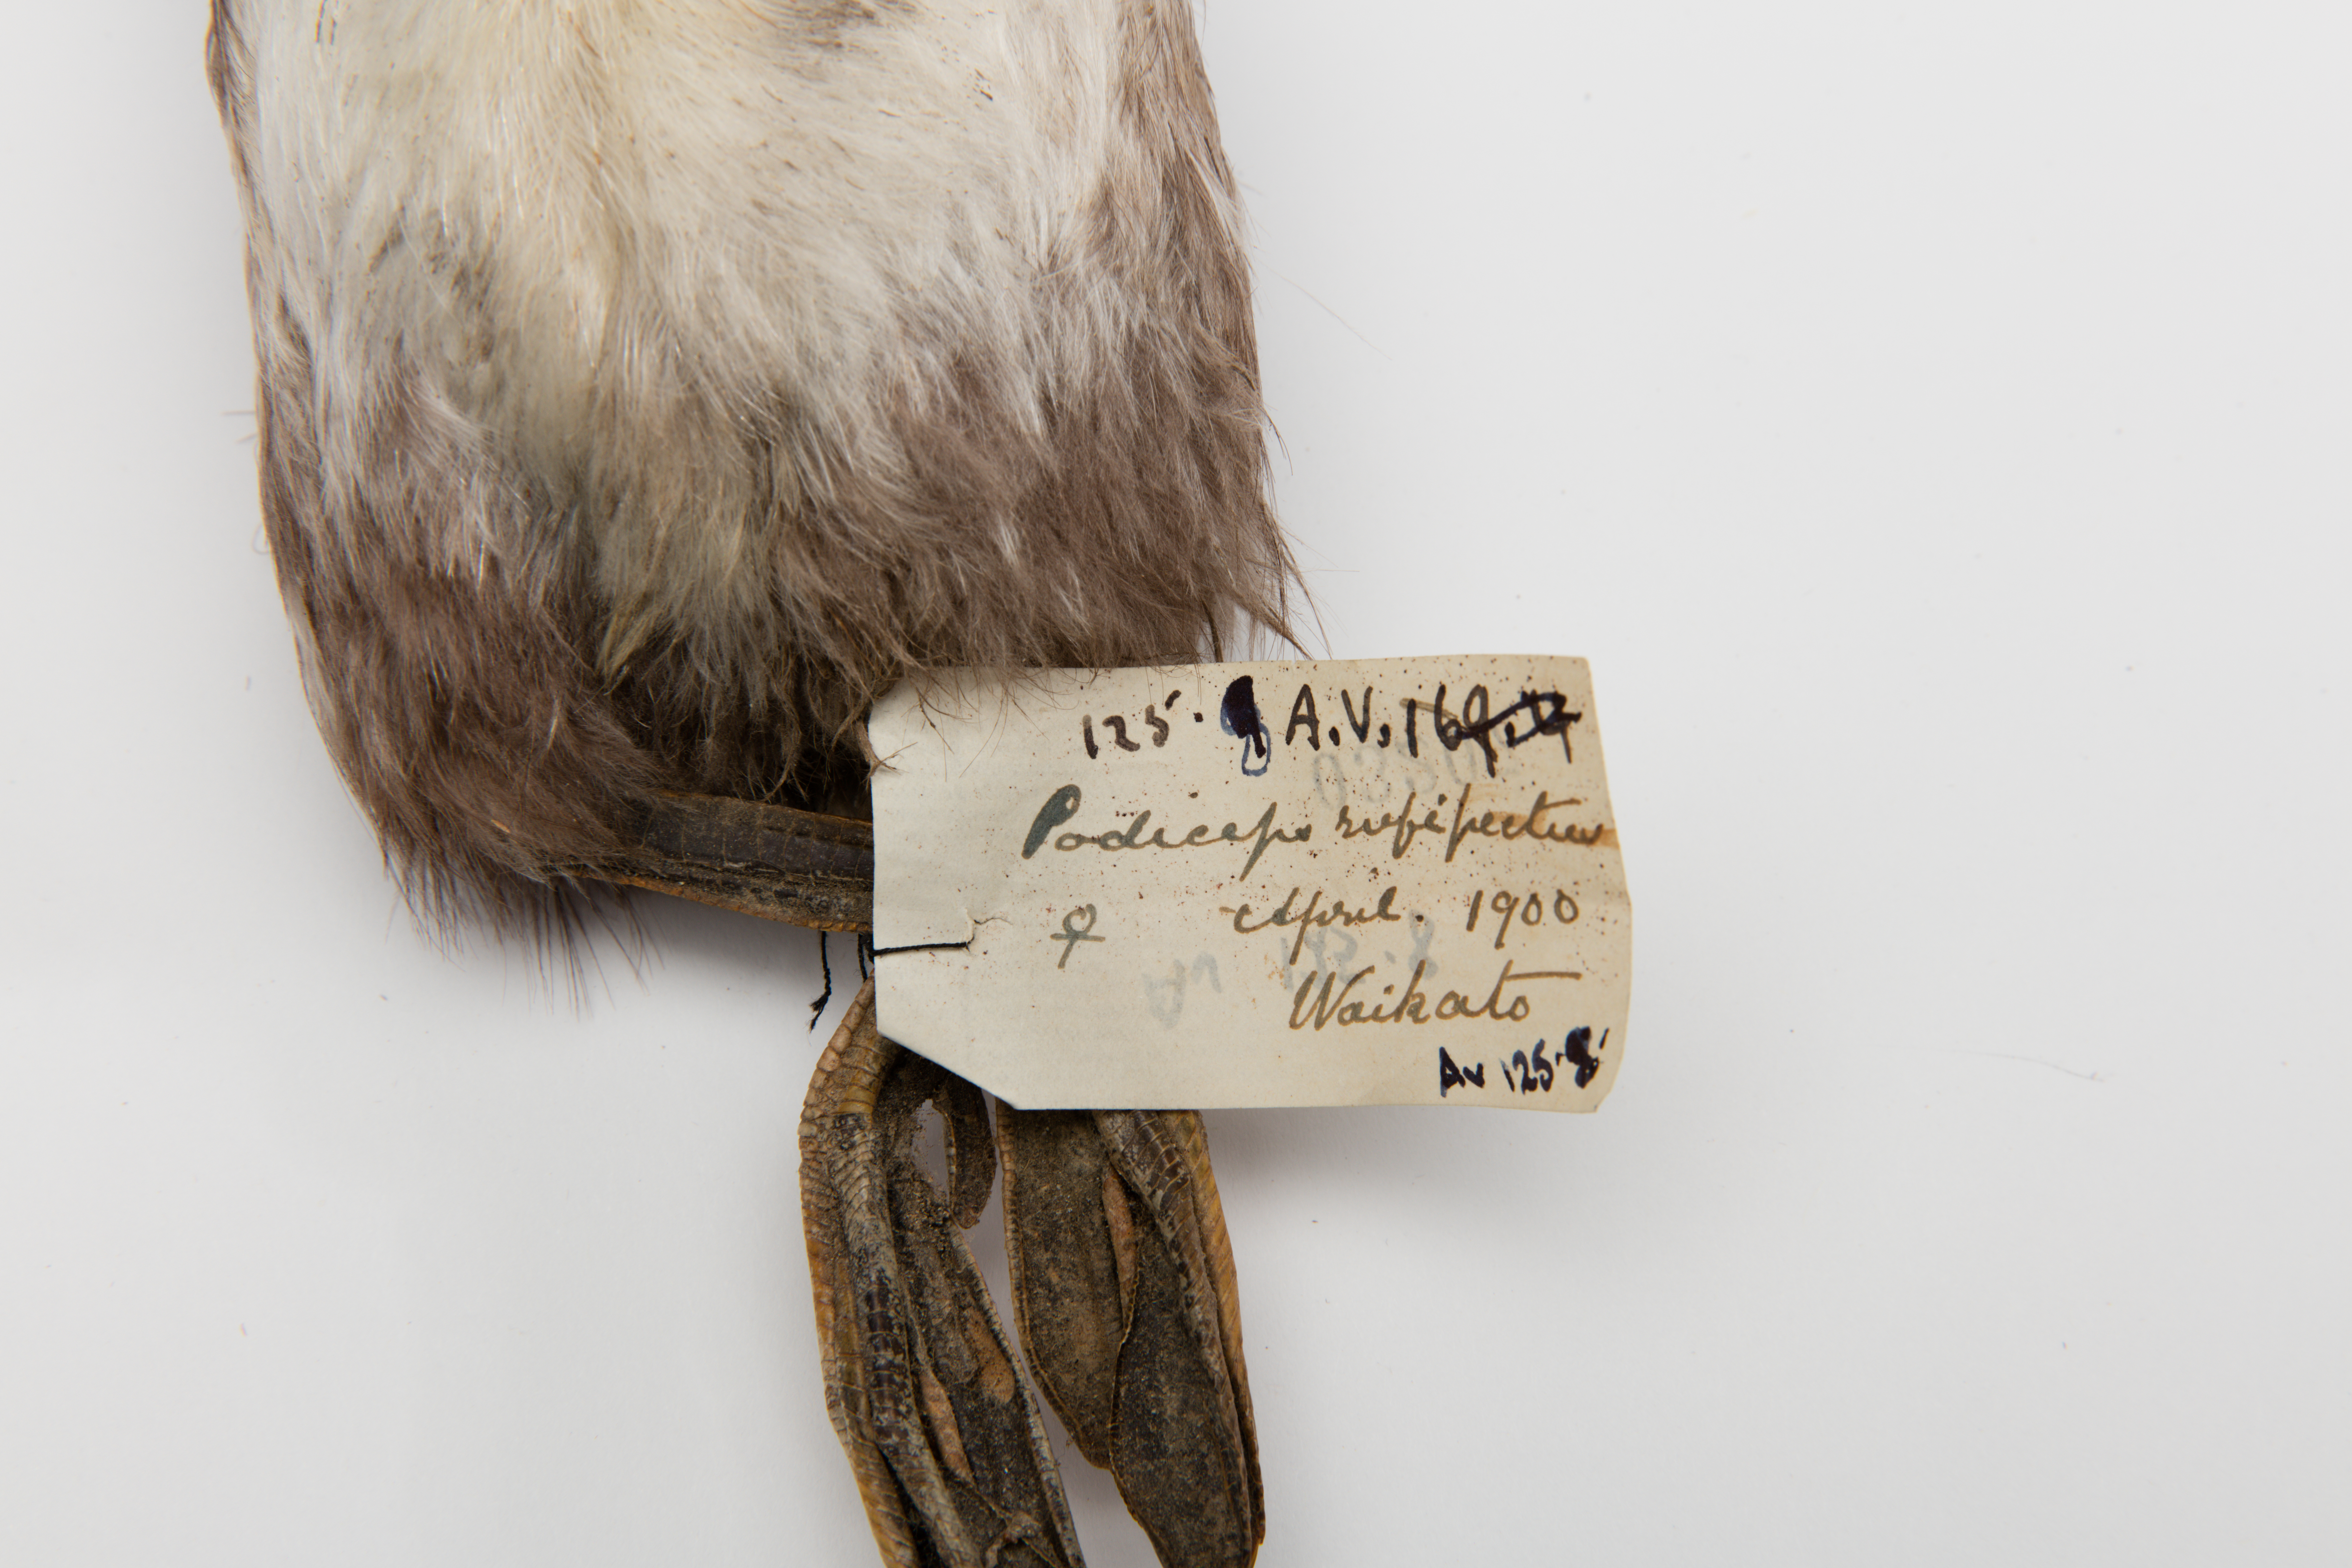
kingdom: Animalia
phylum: Chordata
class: Aves
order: Podicipediformes
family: Podicipedidae
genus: Poliocephalus
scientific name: Poliocephalus rufopectus
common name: New zealand grebe
